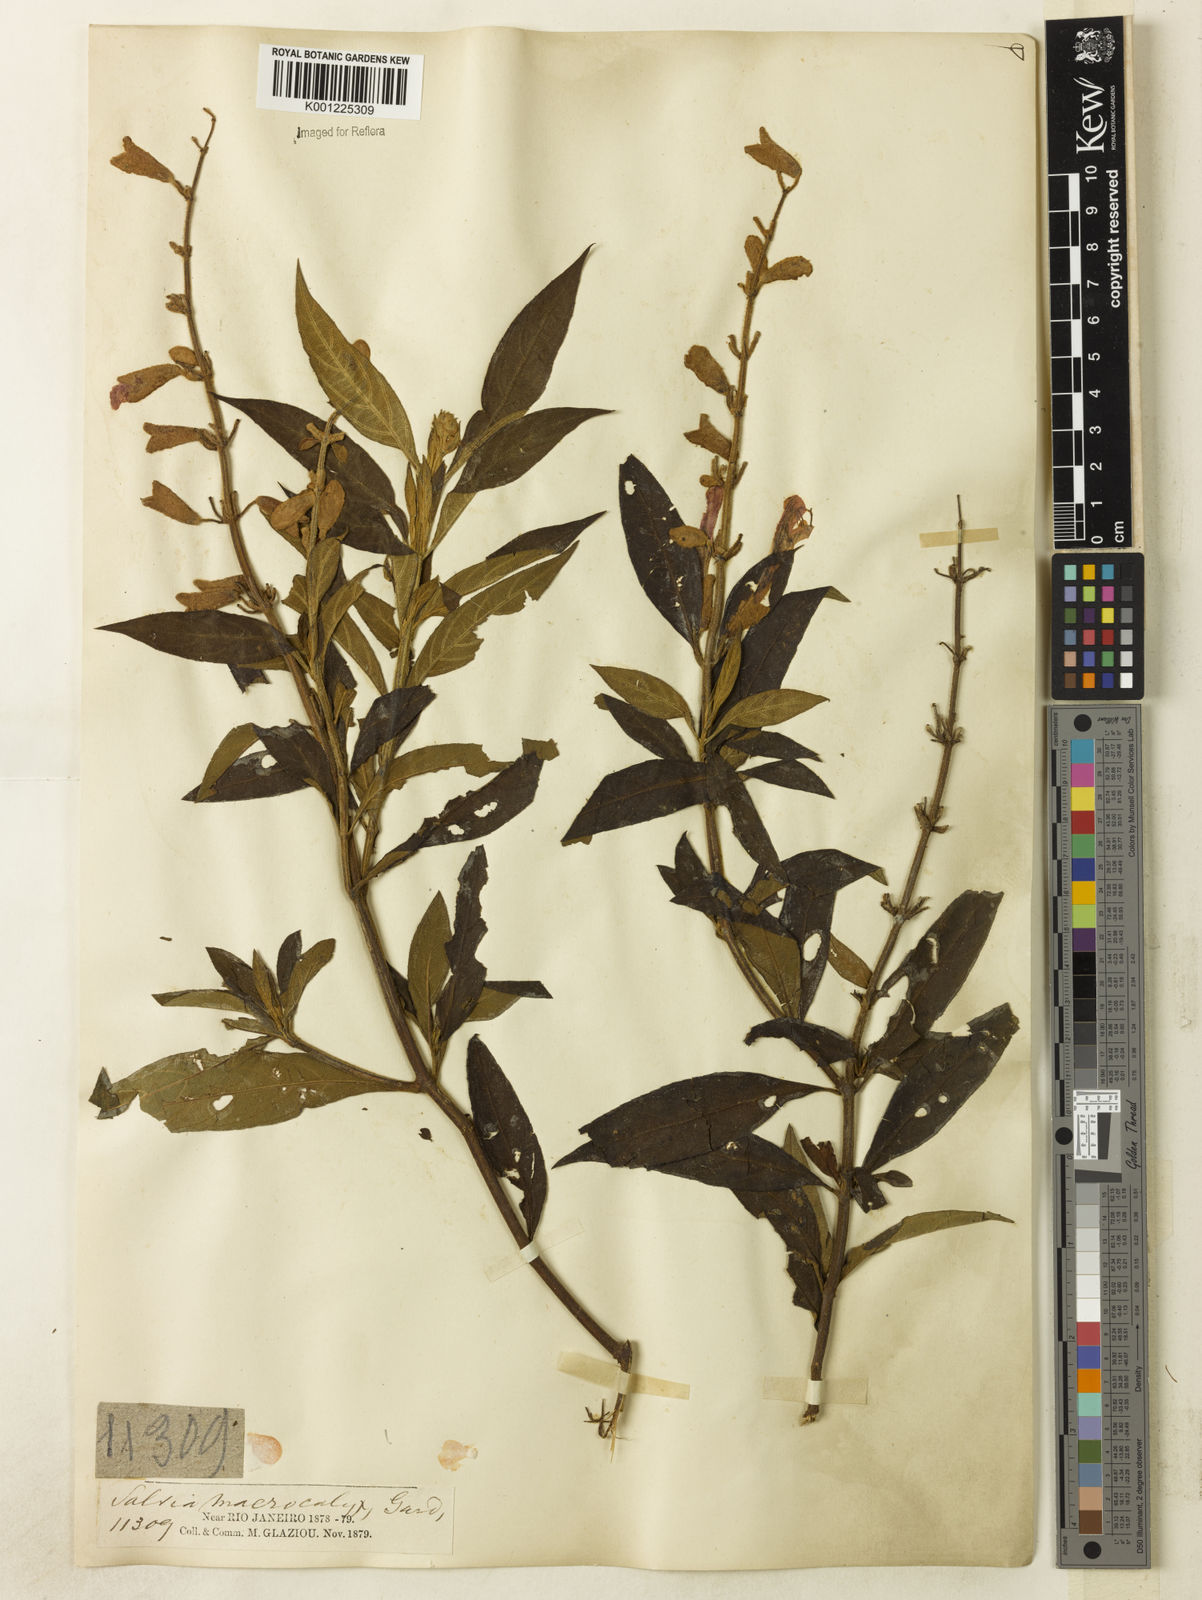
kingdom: Plantae
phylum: Tracheophyta
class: Magnoliopsida
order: Lamiales
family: Lamiaceae
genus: Salvia
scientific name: Salvia macrocalyx
